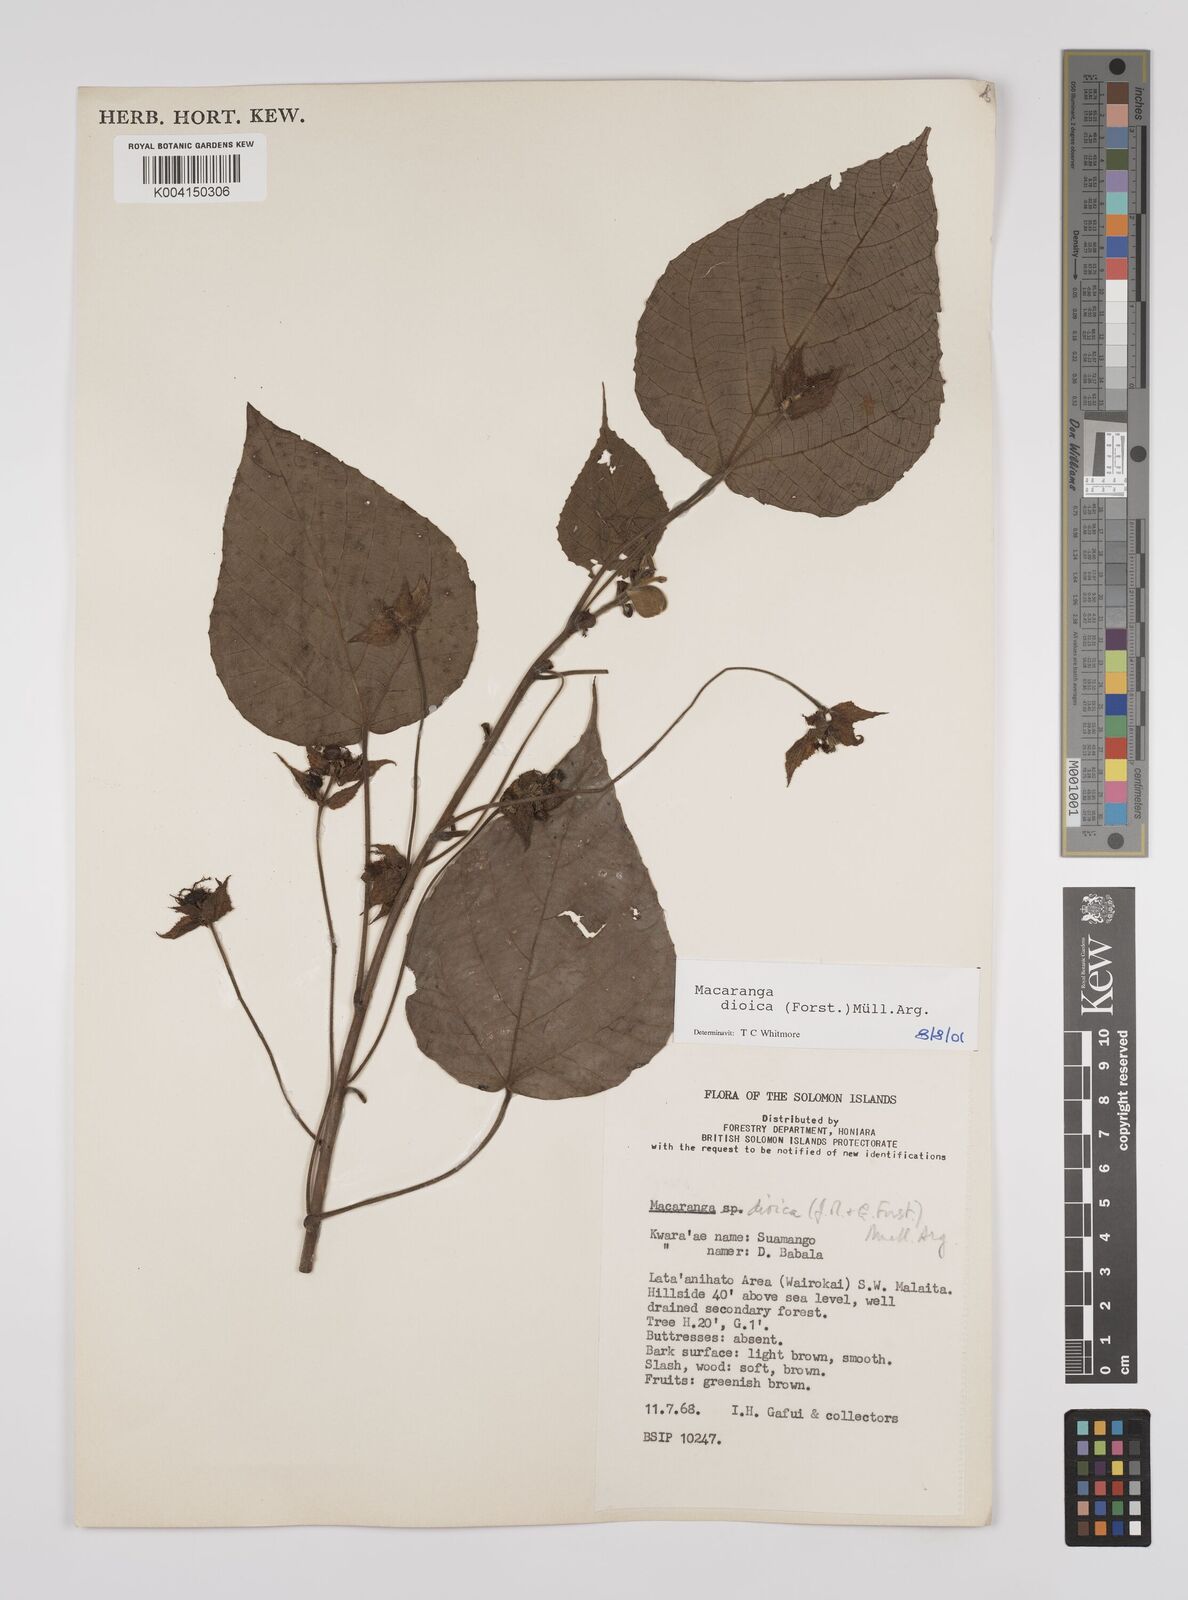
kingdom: Plantae
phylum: Tracheophyta
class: Magnoliopsida
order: Malpighiales
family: Euphorbiaceae
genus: Macaranga
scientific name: Macaranga dioica
